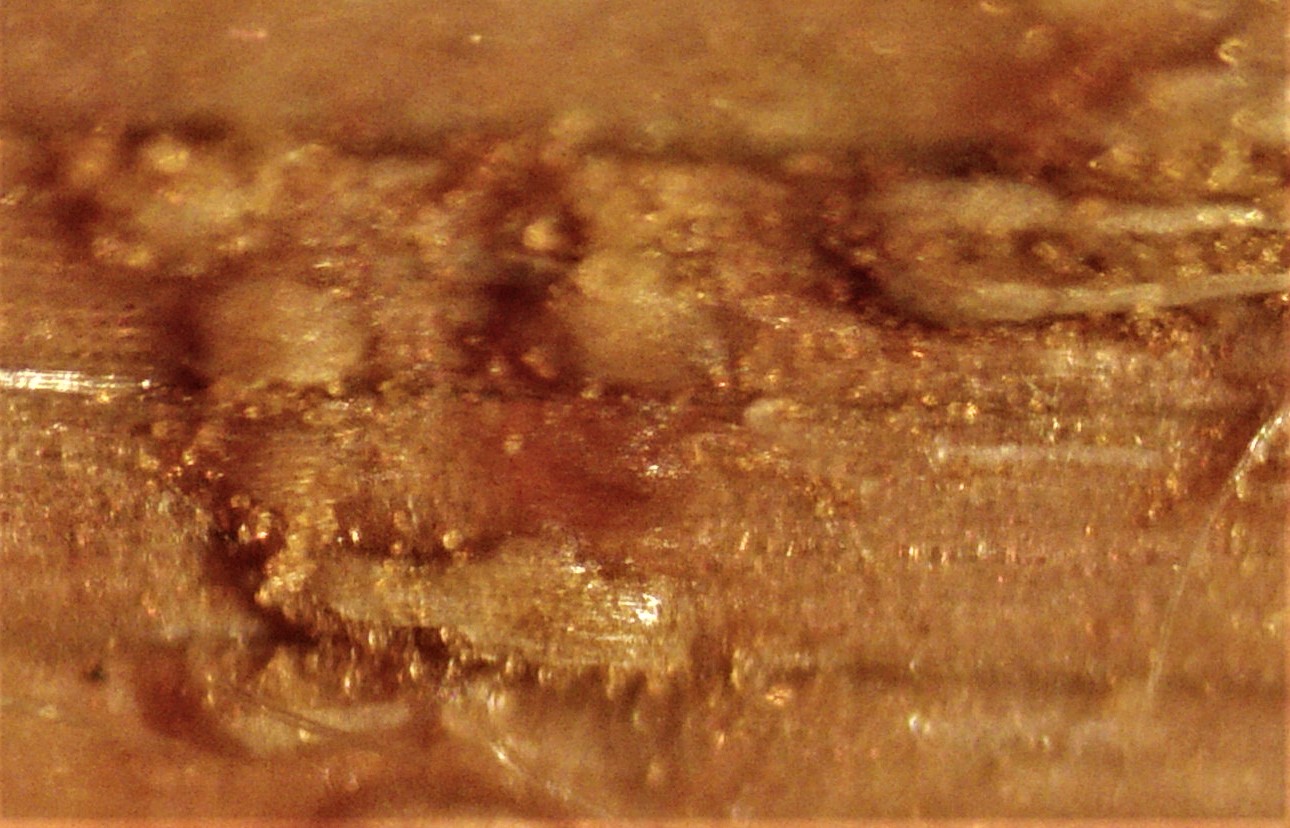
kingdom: Fungi
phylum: Basidiomycota
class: Pucciniomycetes
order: Pucciniales
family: Pucciniaceae
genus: Puccinia
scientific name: Puccinia
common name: tvecellerust
